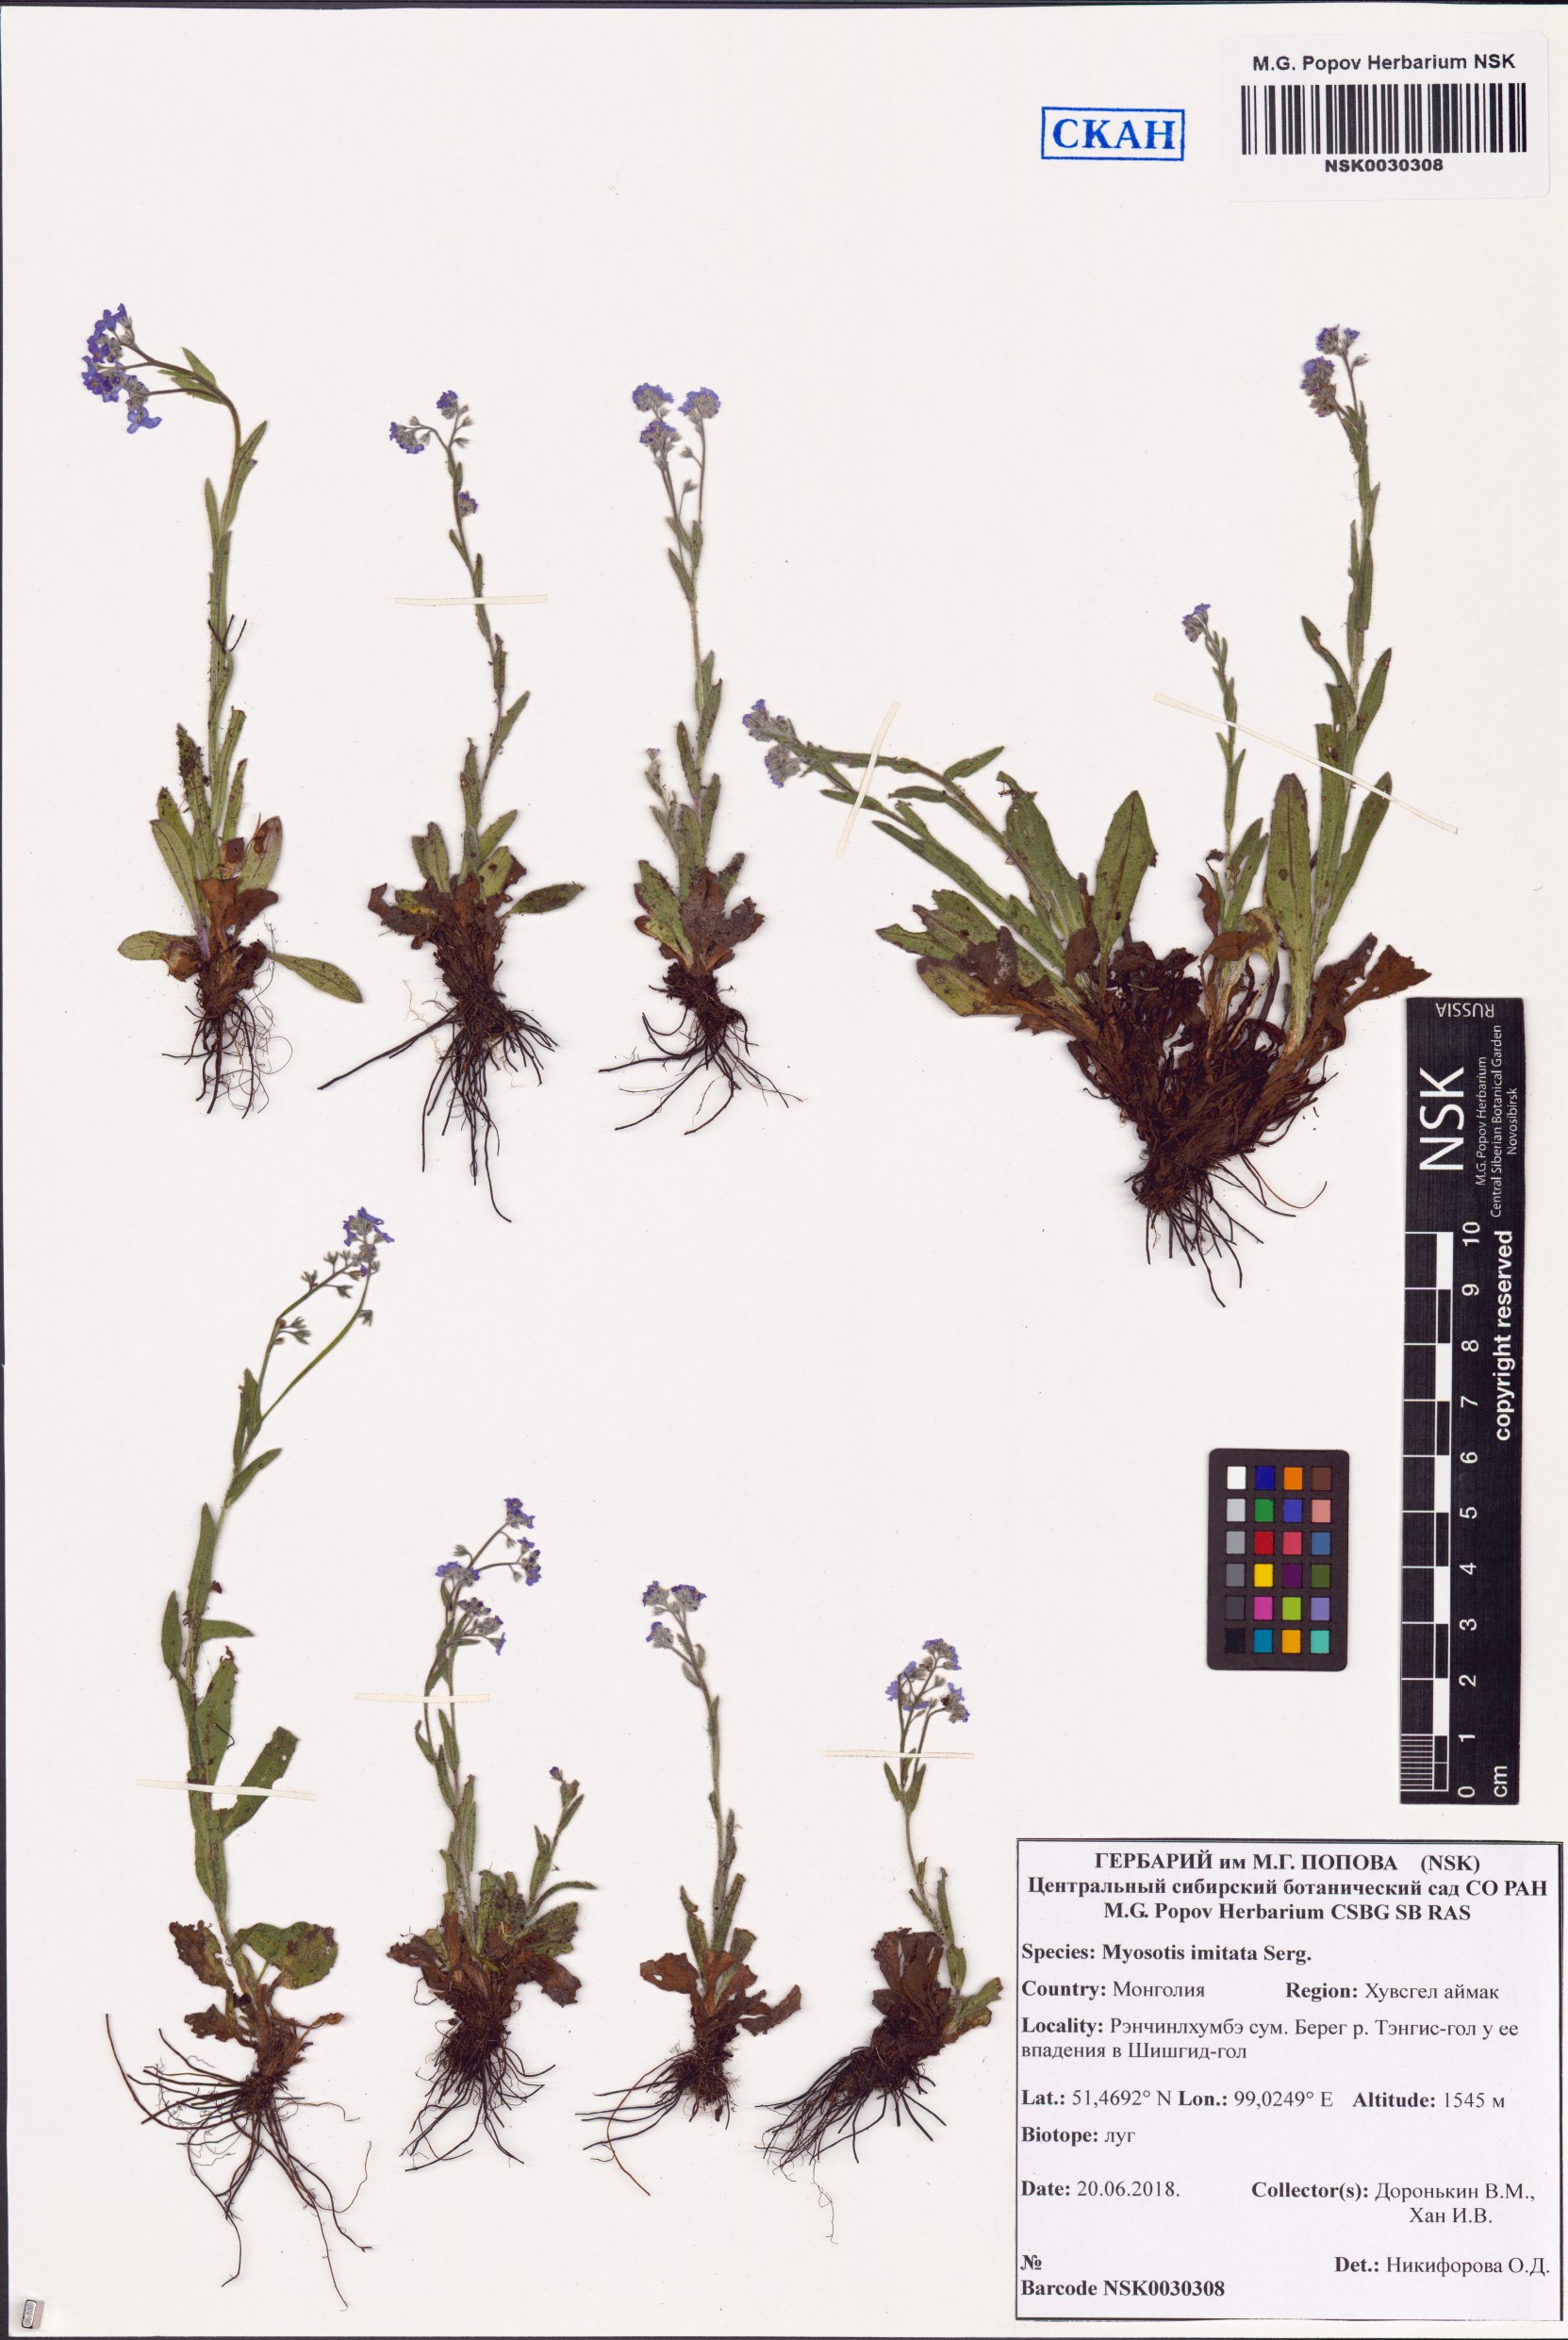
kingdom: Plantae
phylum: Tracheophyta
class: Magnoliopsida
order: Boraginales
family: Boraginaceae
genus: Myosotis
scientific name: Myosotis imitata
